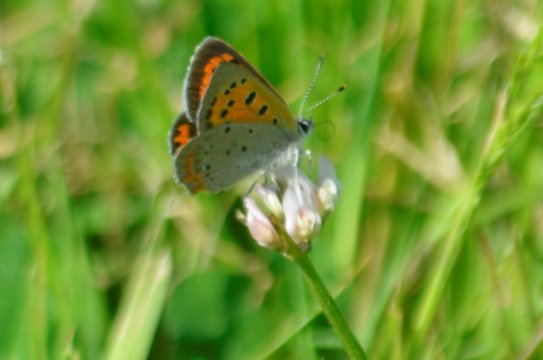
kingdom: Animalia
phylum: Arthropoda
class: Insecta
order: Lepidoptera
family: Lycaenidae
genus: Lycaena
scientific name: Lycaena phlaeas
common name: American Copper
